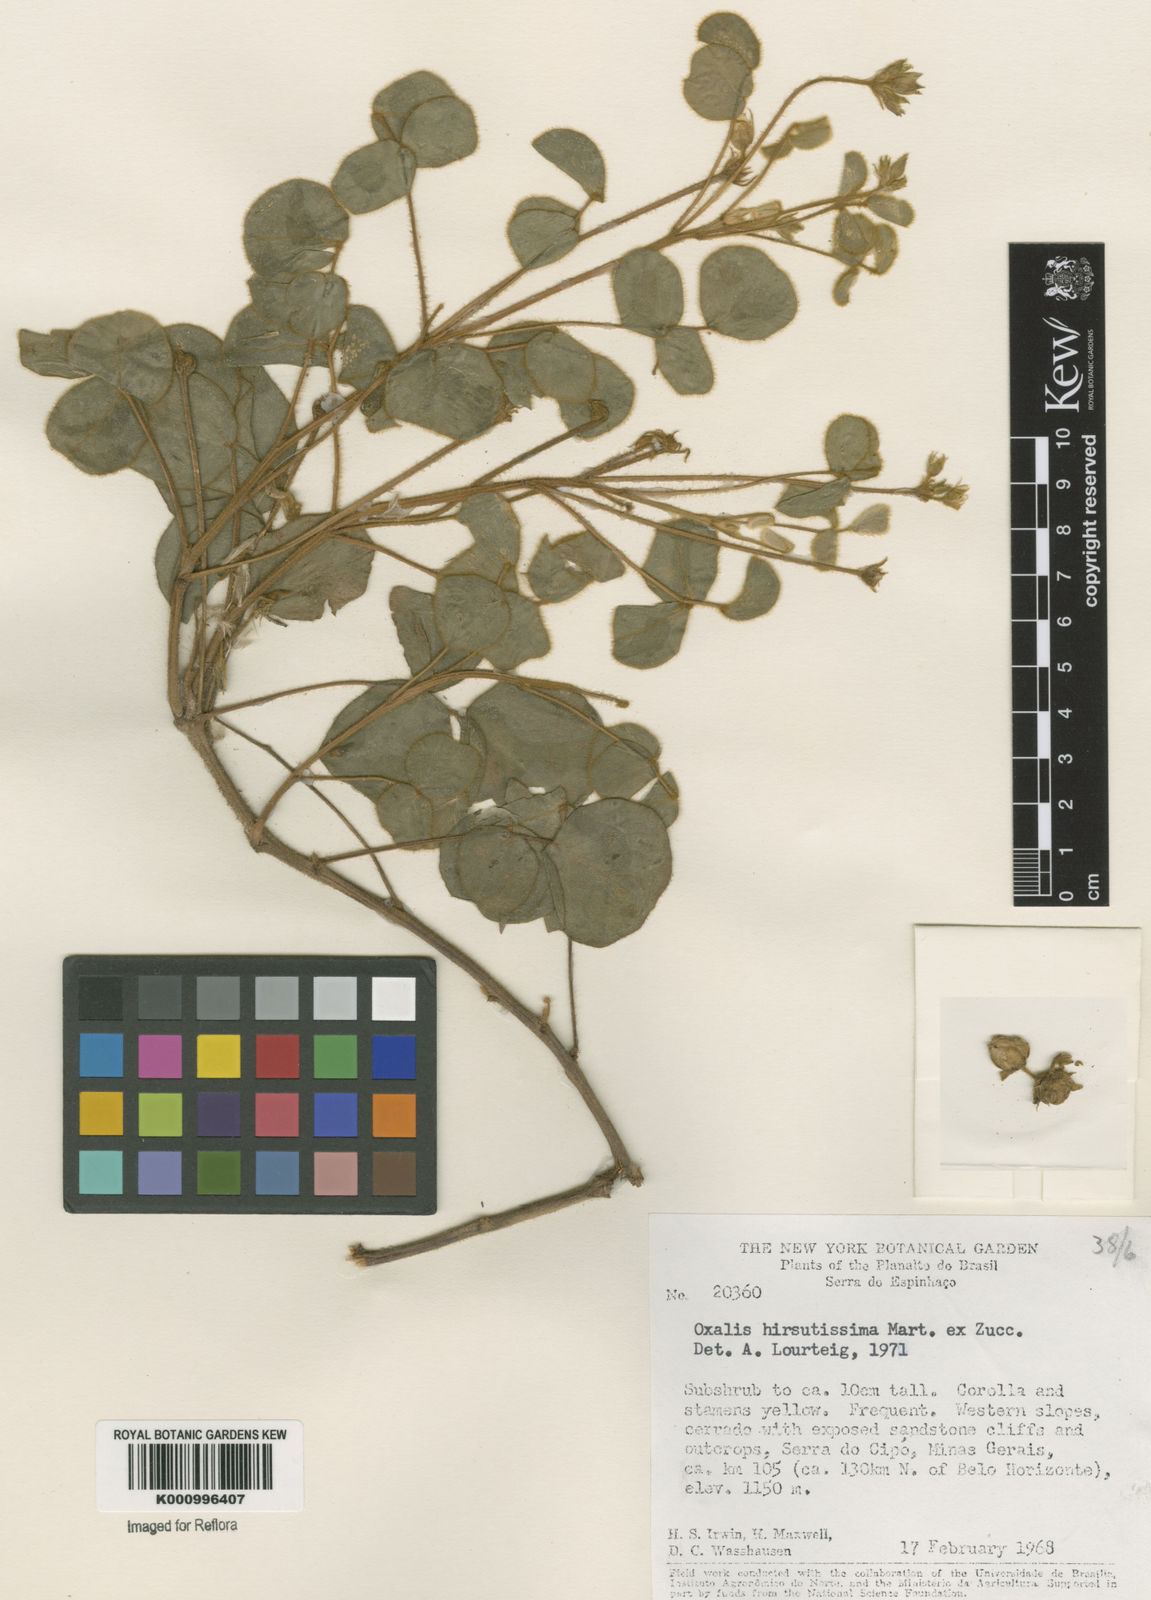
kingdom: Plantae
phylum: Tracheophyta
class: Magnoliopsida
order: Oxalidales
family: Oxalidaceae
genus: Oxalis
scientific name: Oxalis hirsutissima
